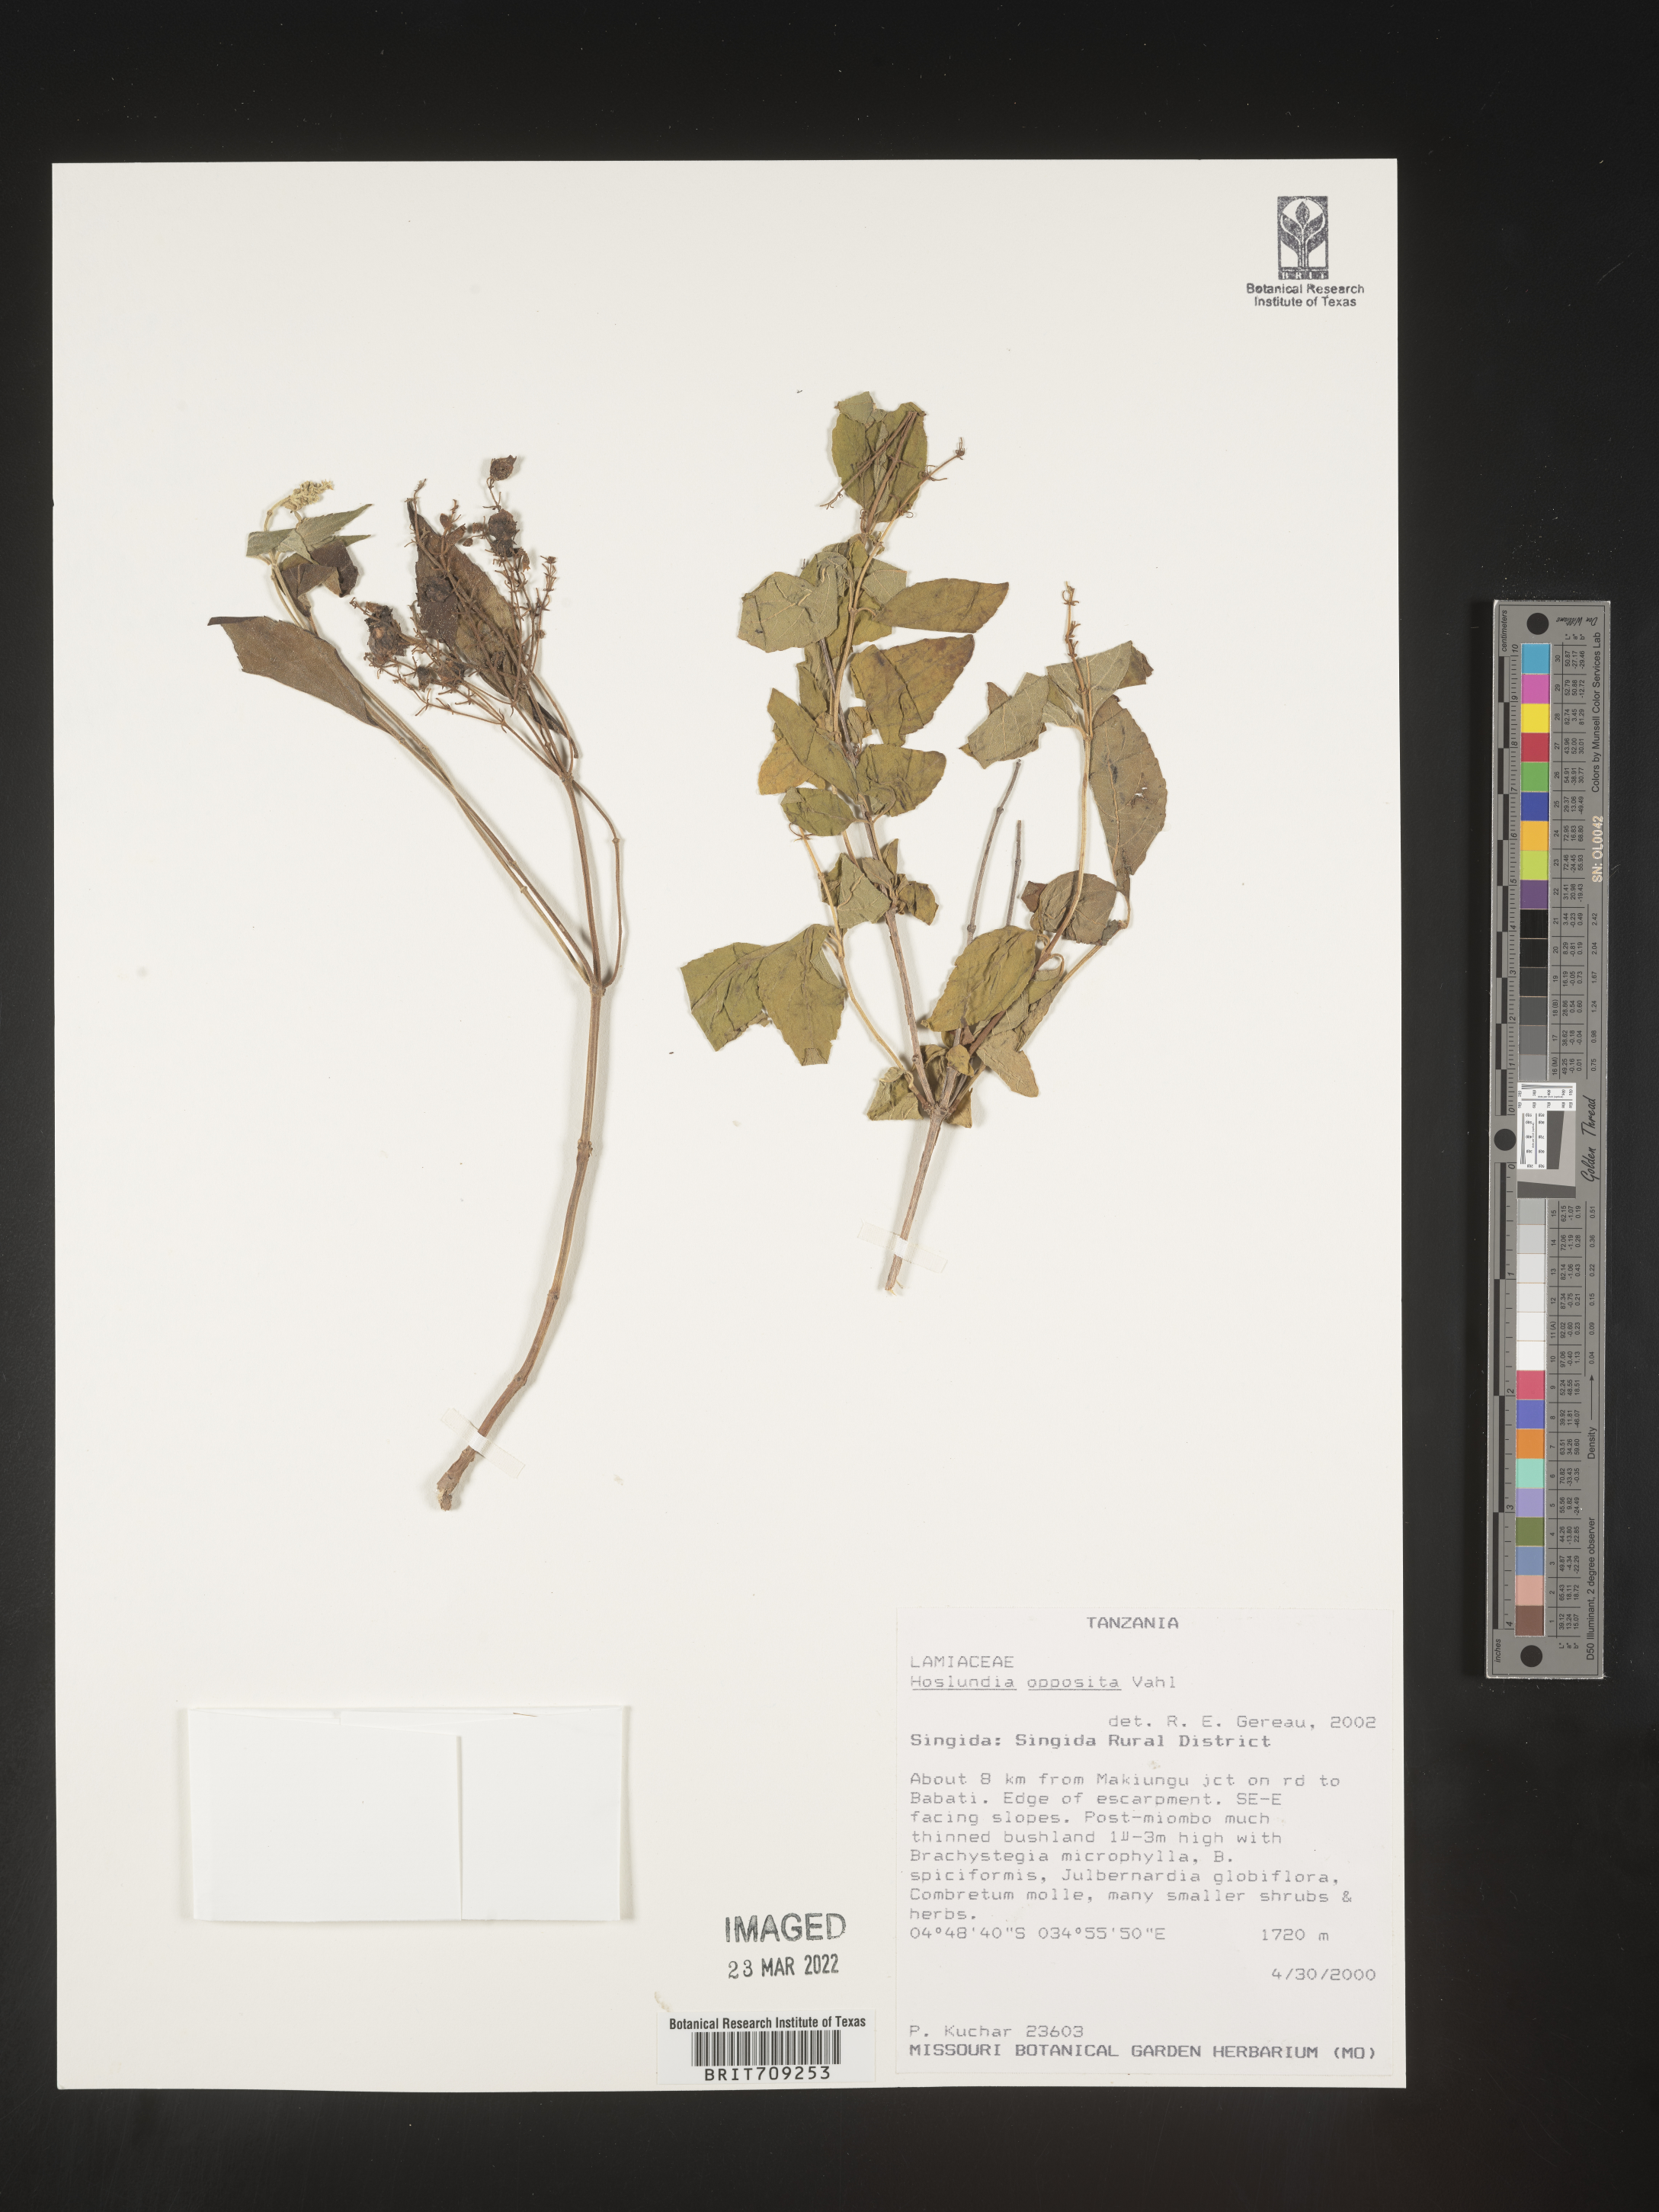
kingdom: Plantae
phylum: Tracheophyta
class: Magnoliopsida
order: Lamiales
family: Lamiaceae
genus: Hoslundia
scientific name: Hoslundia opposita
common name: Kamyuye
